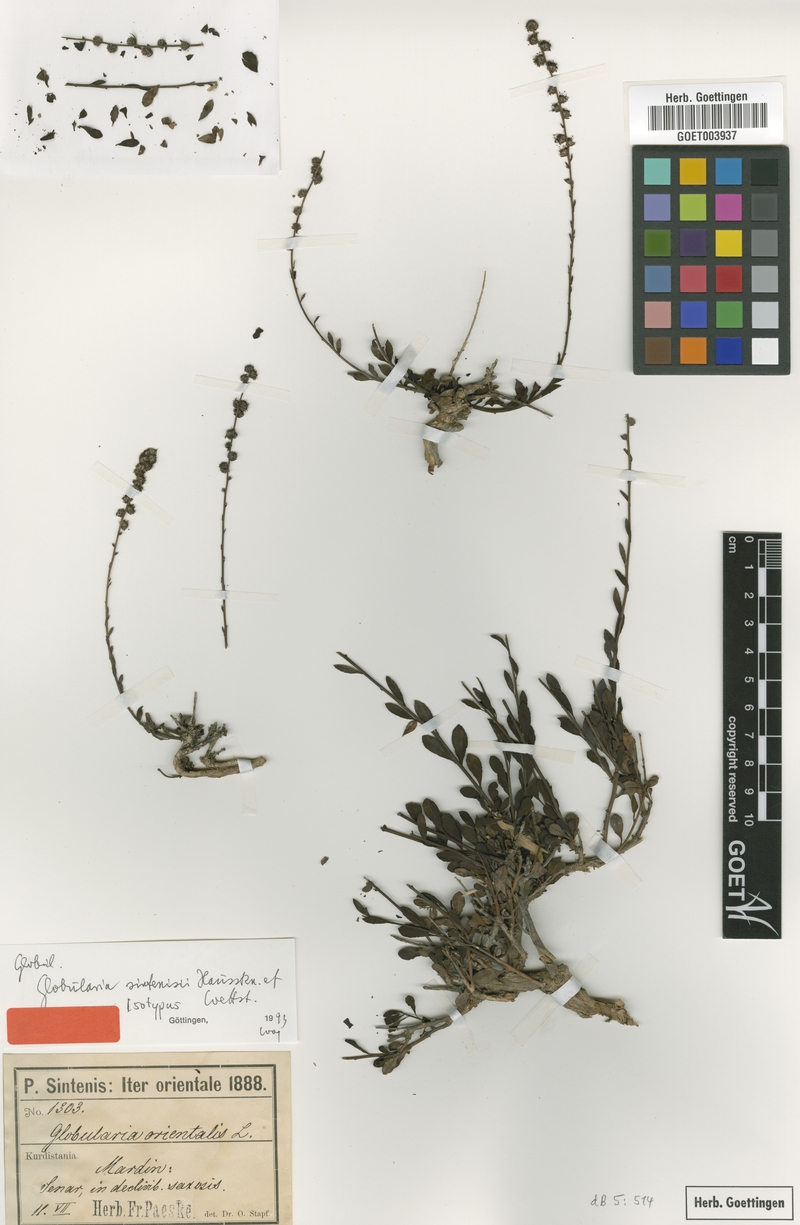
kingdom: Plantae
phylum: Tracheophyta
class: Magnoliopsida
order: Lamiales
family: Plantaginaceae
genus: Globularia
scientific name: Globularia sintenisii
